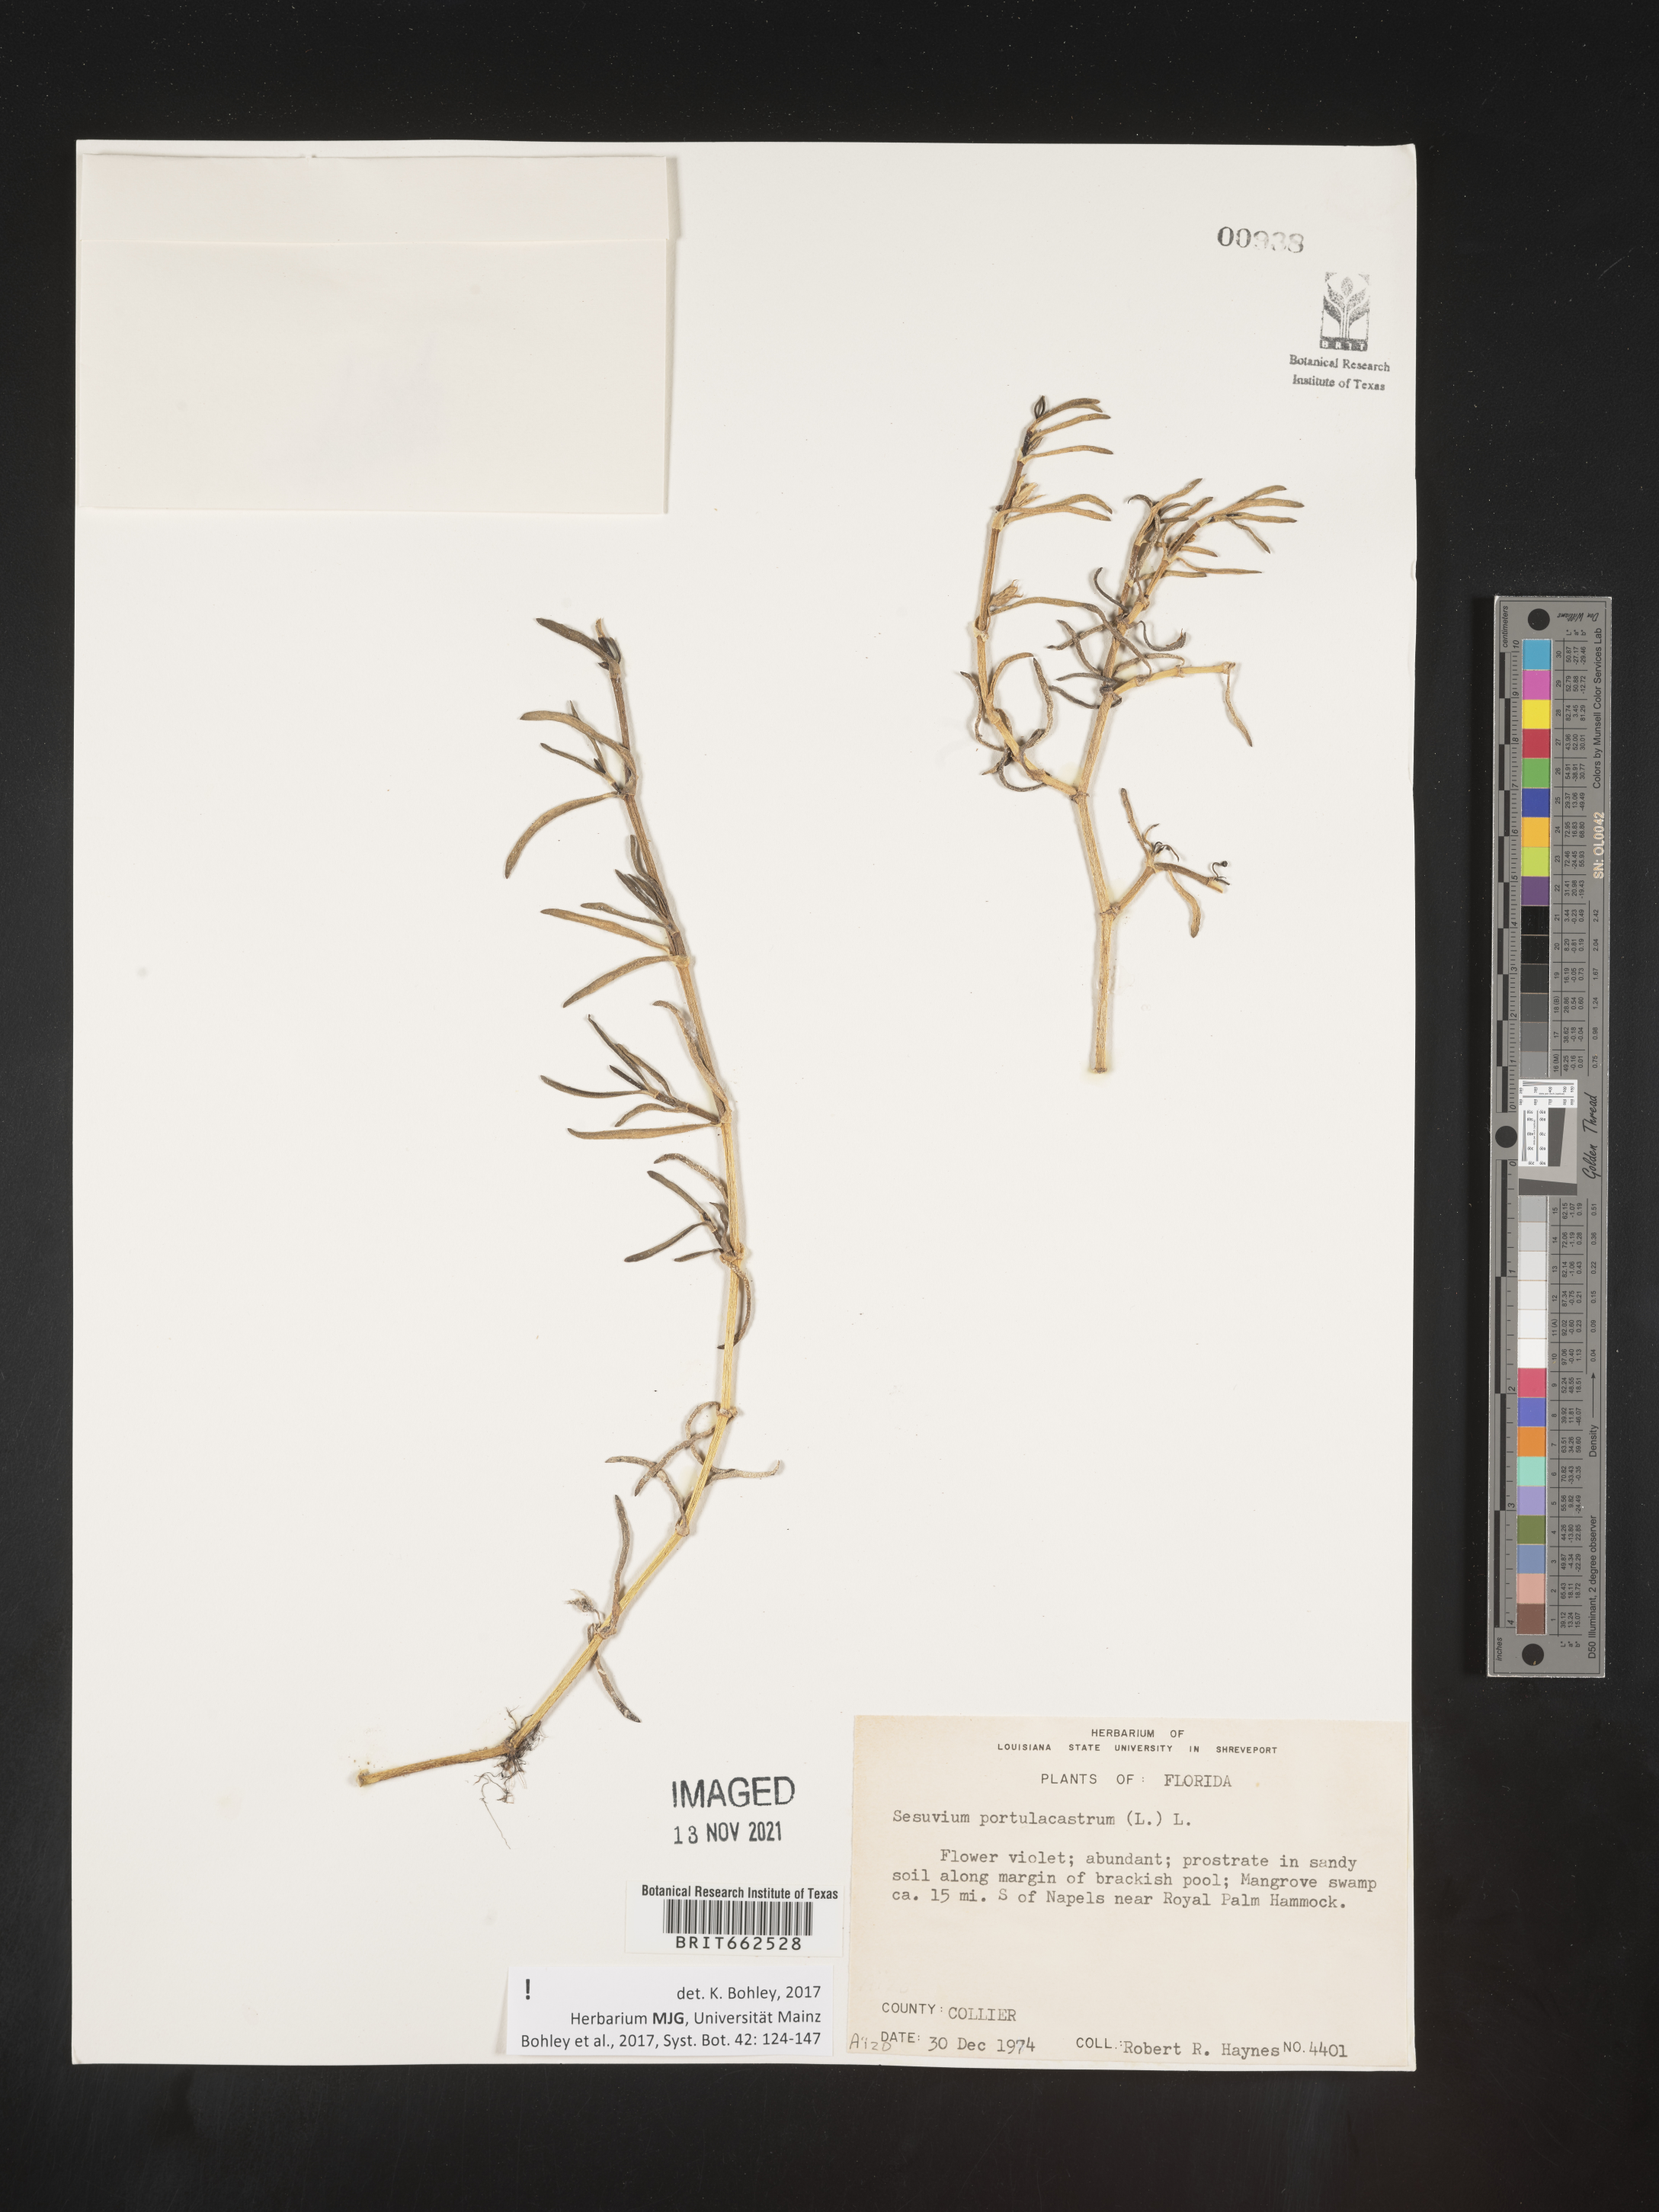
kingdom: Plantae
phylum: Tracheophyta
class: Magnoliopsida
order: Caryophyllales
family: Aizoaceae
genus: Sesuvium
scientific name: Sesuvium portulacastrum
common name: Sea-purslane
